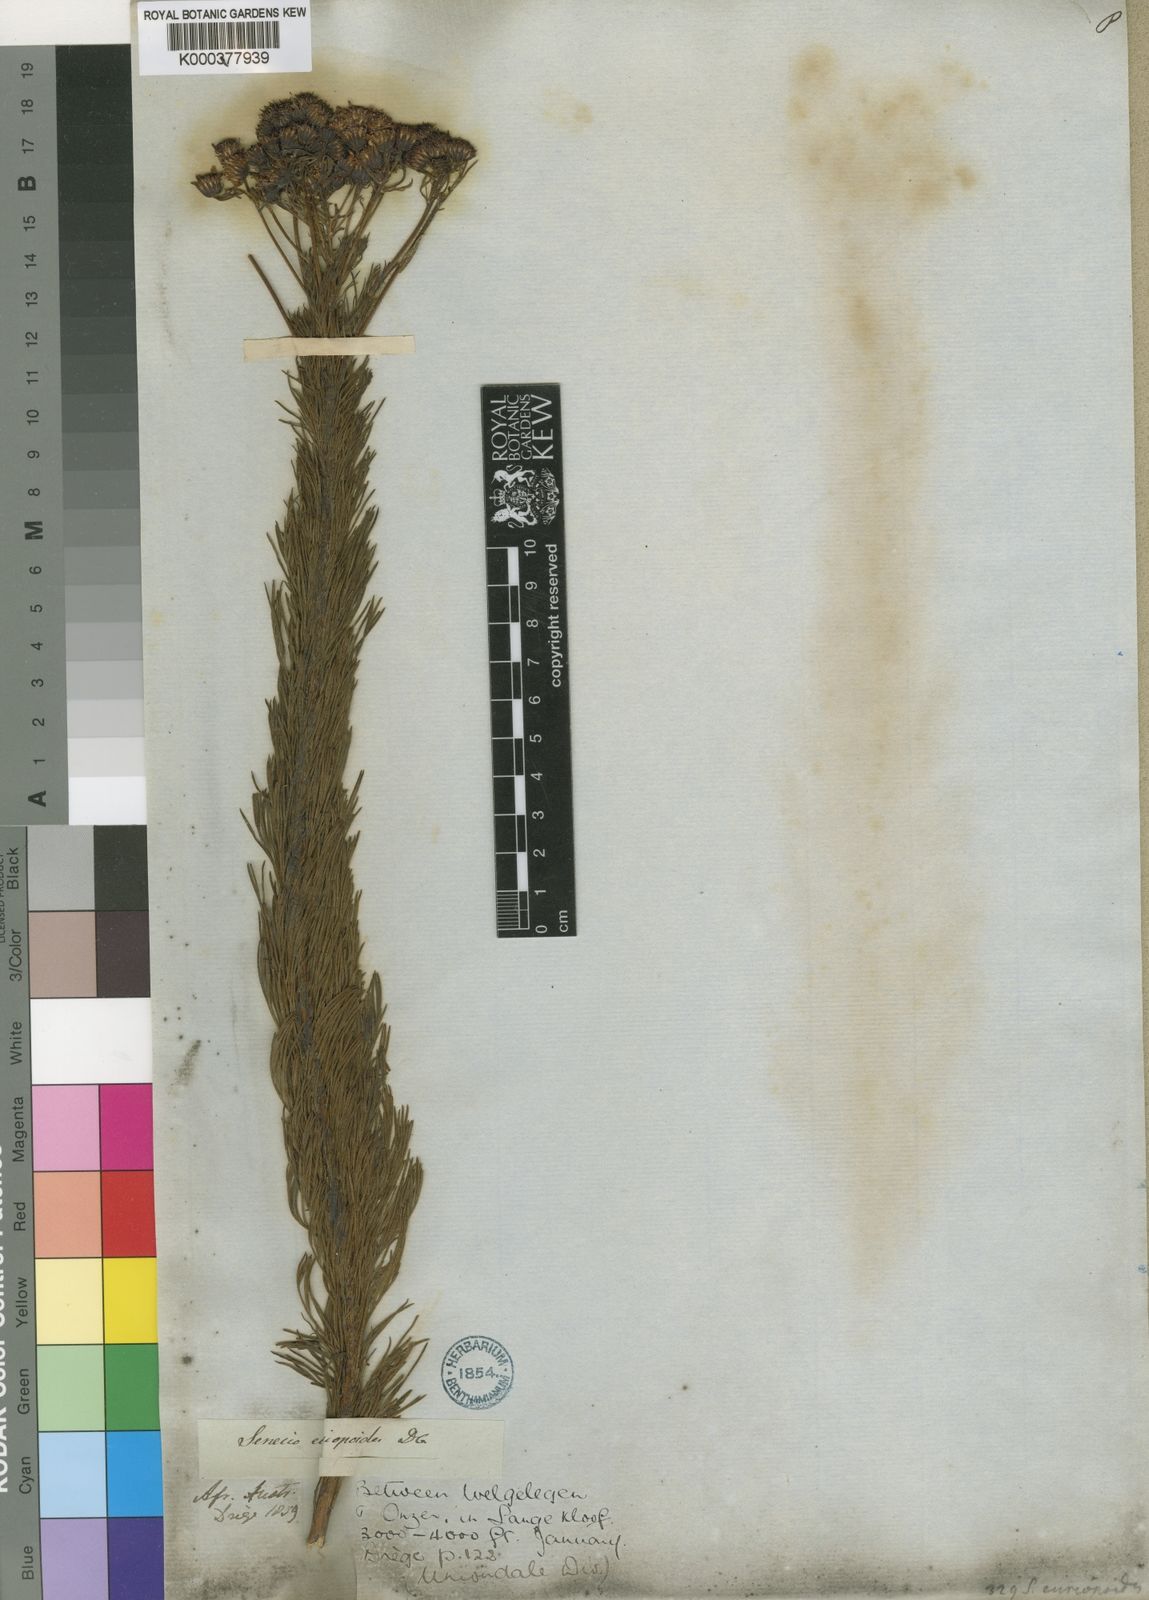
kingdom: Plantae
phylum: Tracheophyta
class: Magnoliopsida
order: Asterales
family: Asteraceae
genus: Senecio
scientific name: Senecio euriopoides
